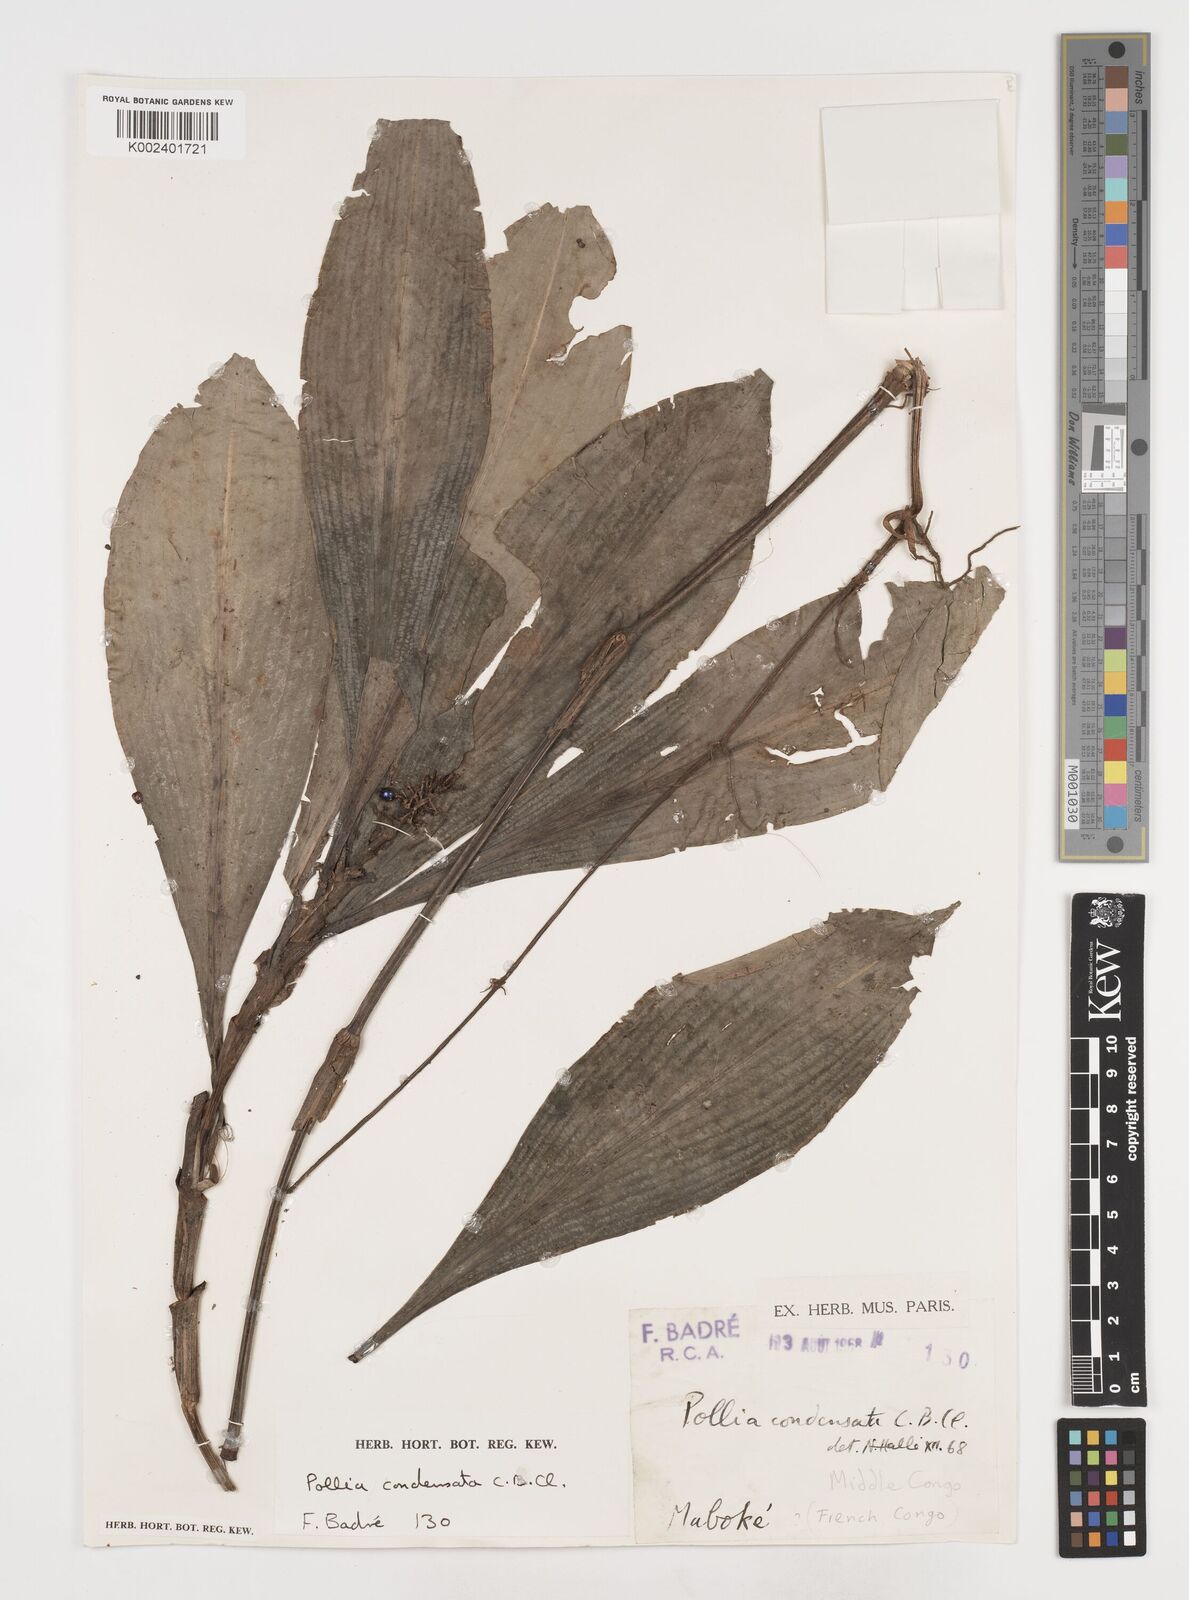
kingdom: Plantae
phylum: Tracheophyta
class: Liliopsida
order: Commelinales
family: Commelinaceae
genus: Pollia
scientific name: Pollia condensata
